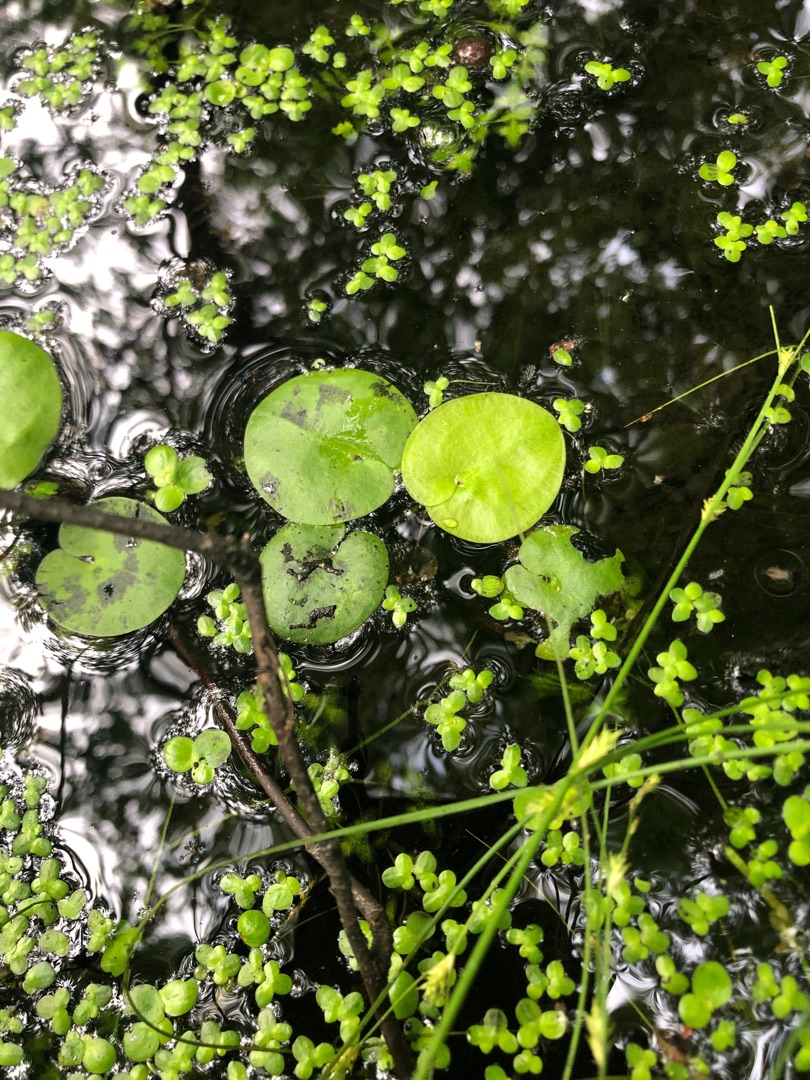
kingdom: Plantae
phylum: Tracheophyta
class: Liliopsida
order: Alismatales
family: Hydrocharitaceae
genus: Hydrocharis
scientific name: Hydrocharis morsus-ranae
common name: Frøbid
